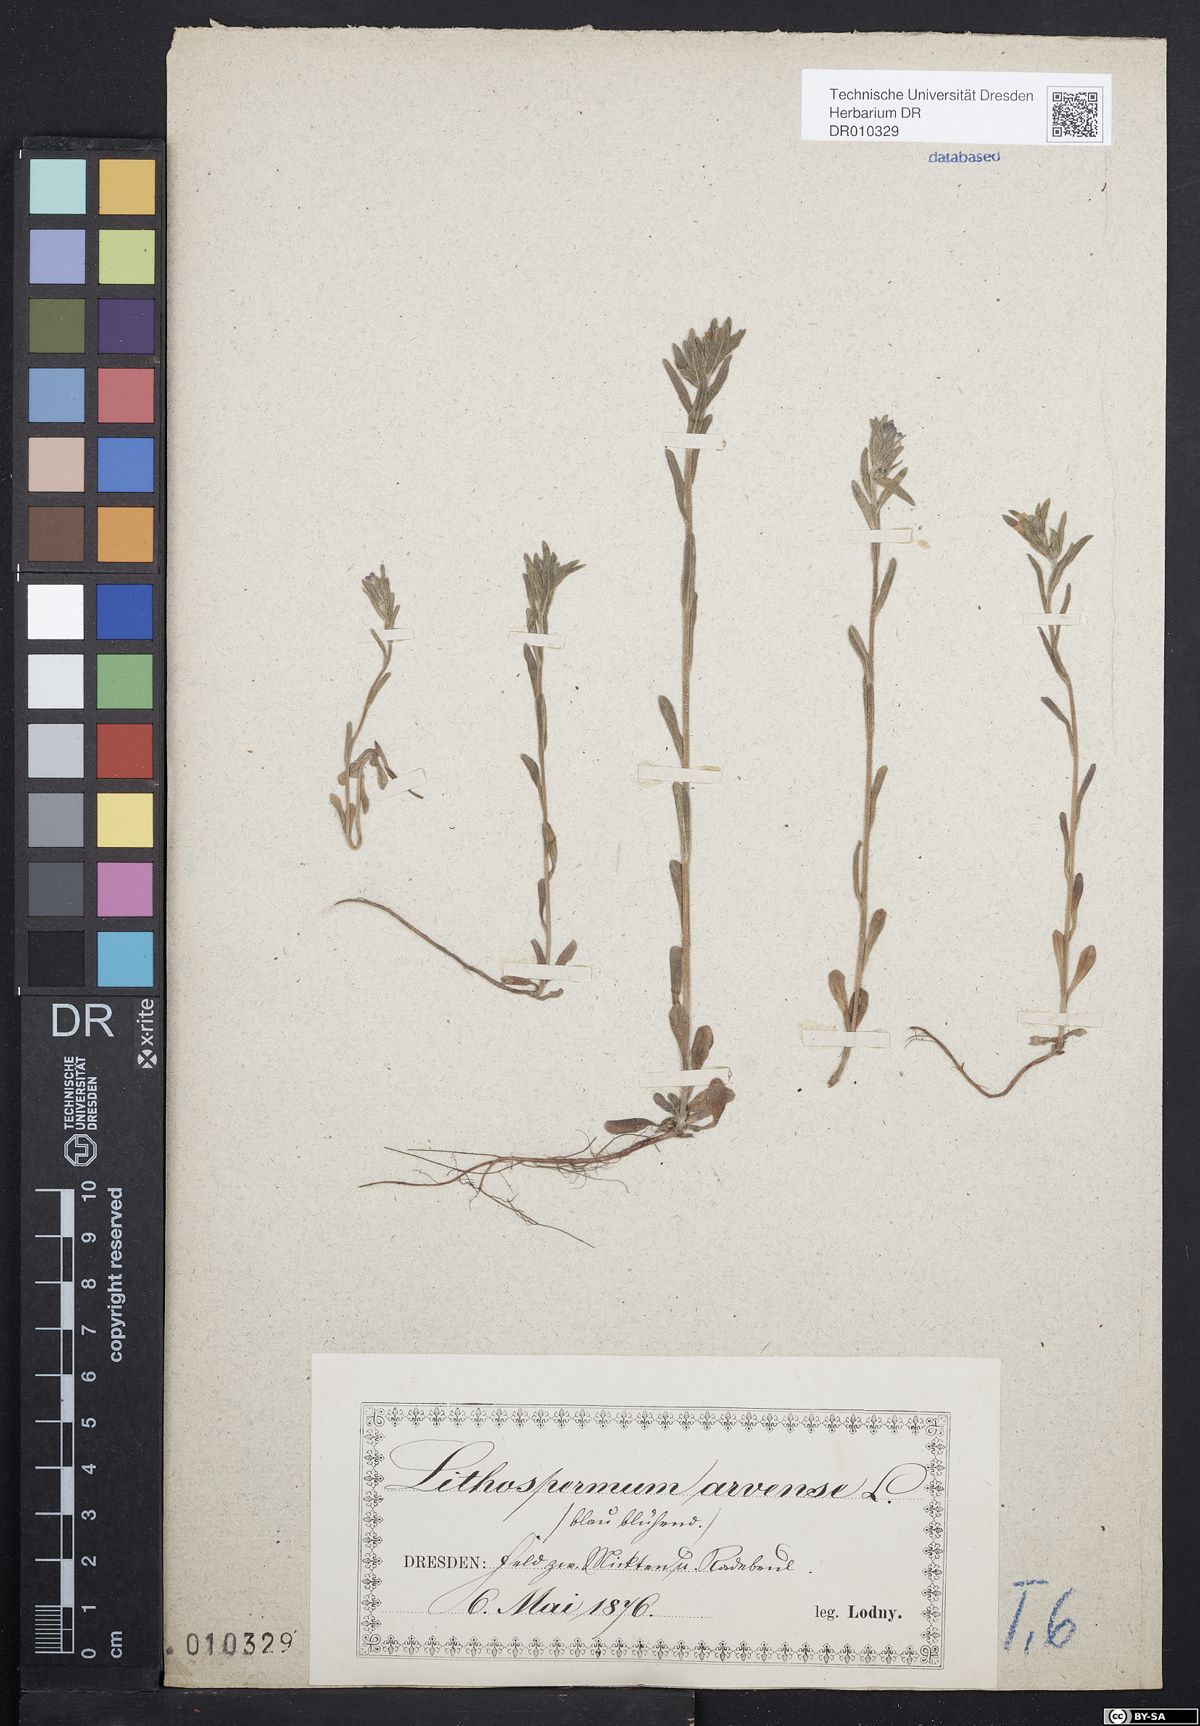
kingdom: Plantae
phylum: Tracheophyta
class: Magnoliopsida
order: Boraginales
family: Boraginaceae
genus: Buglossoides
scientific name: Buglossoides arvensis
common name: Corn gromwell
